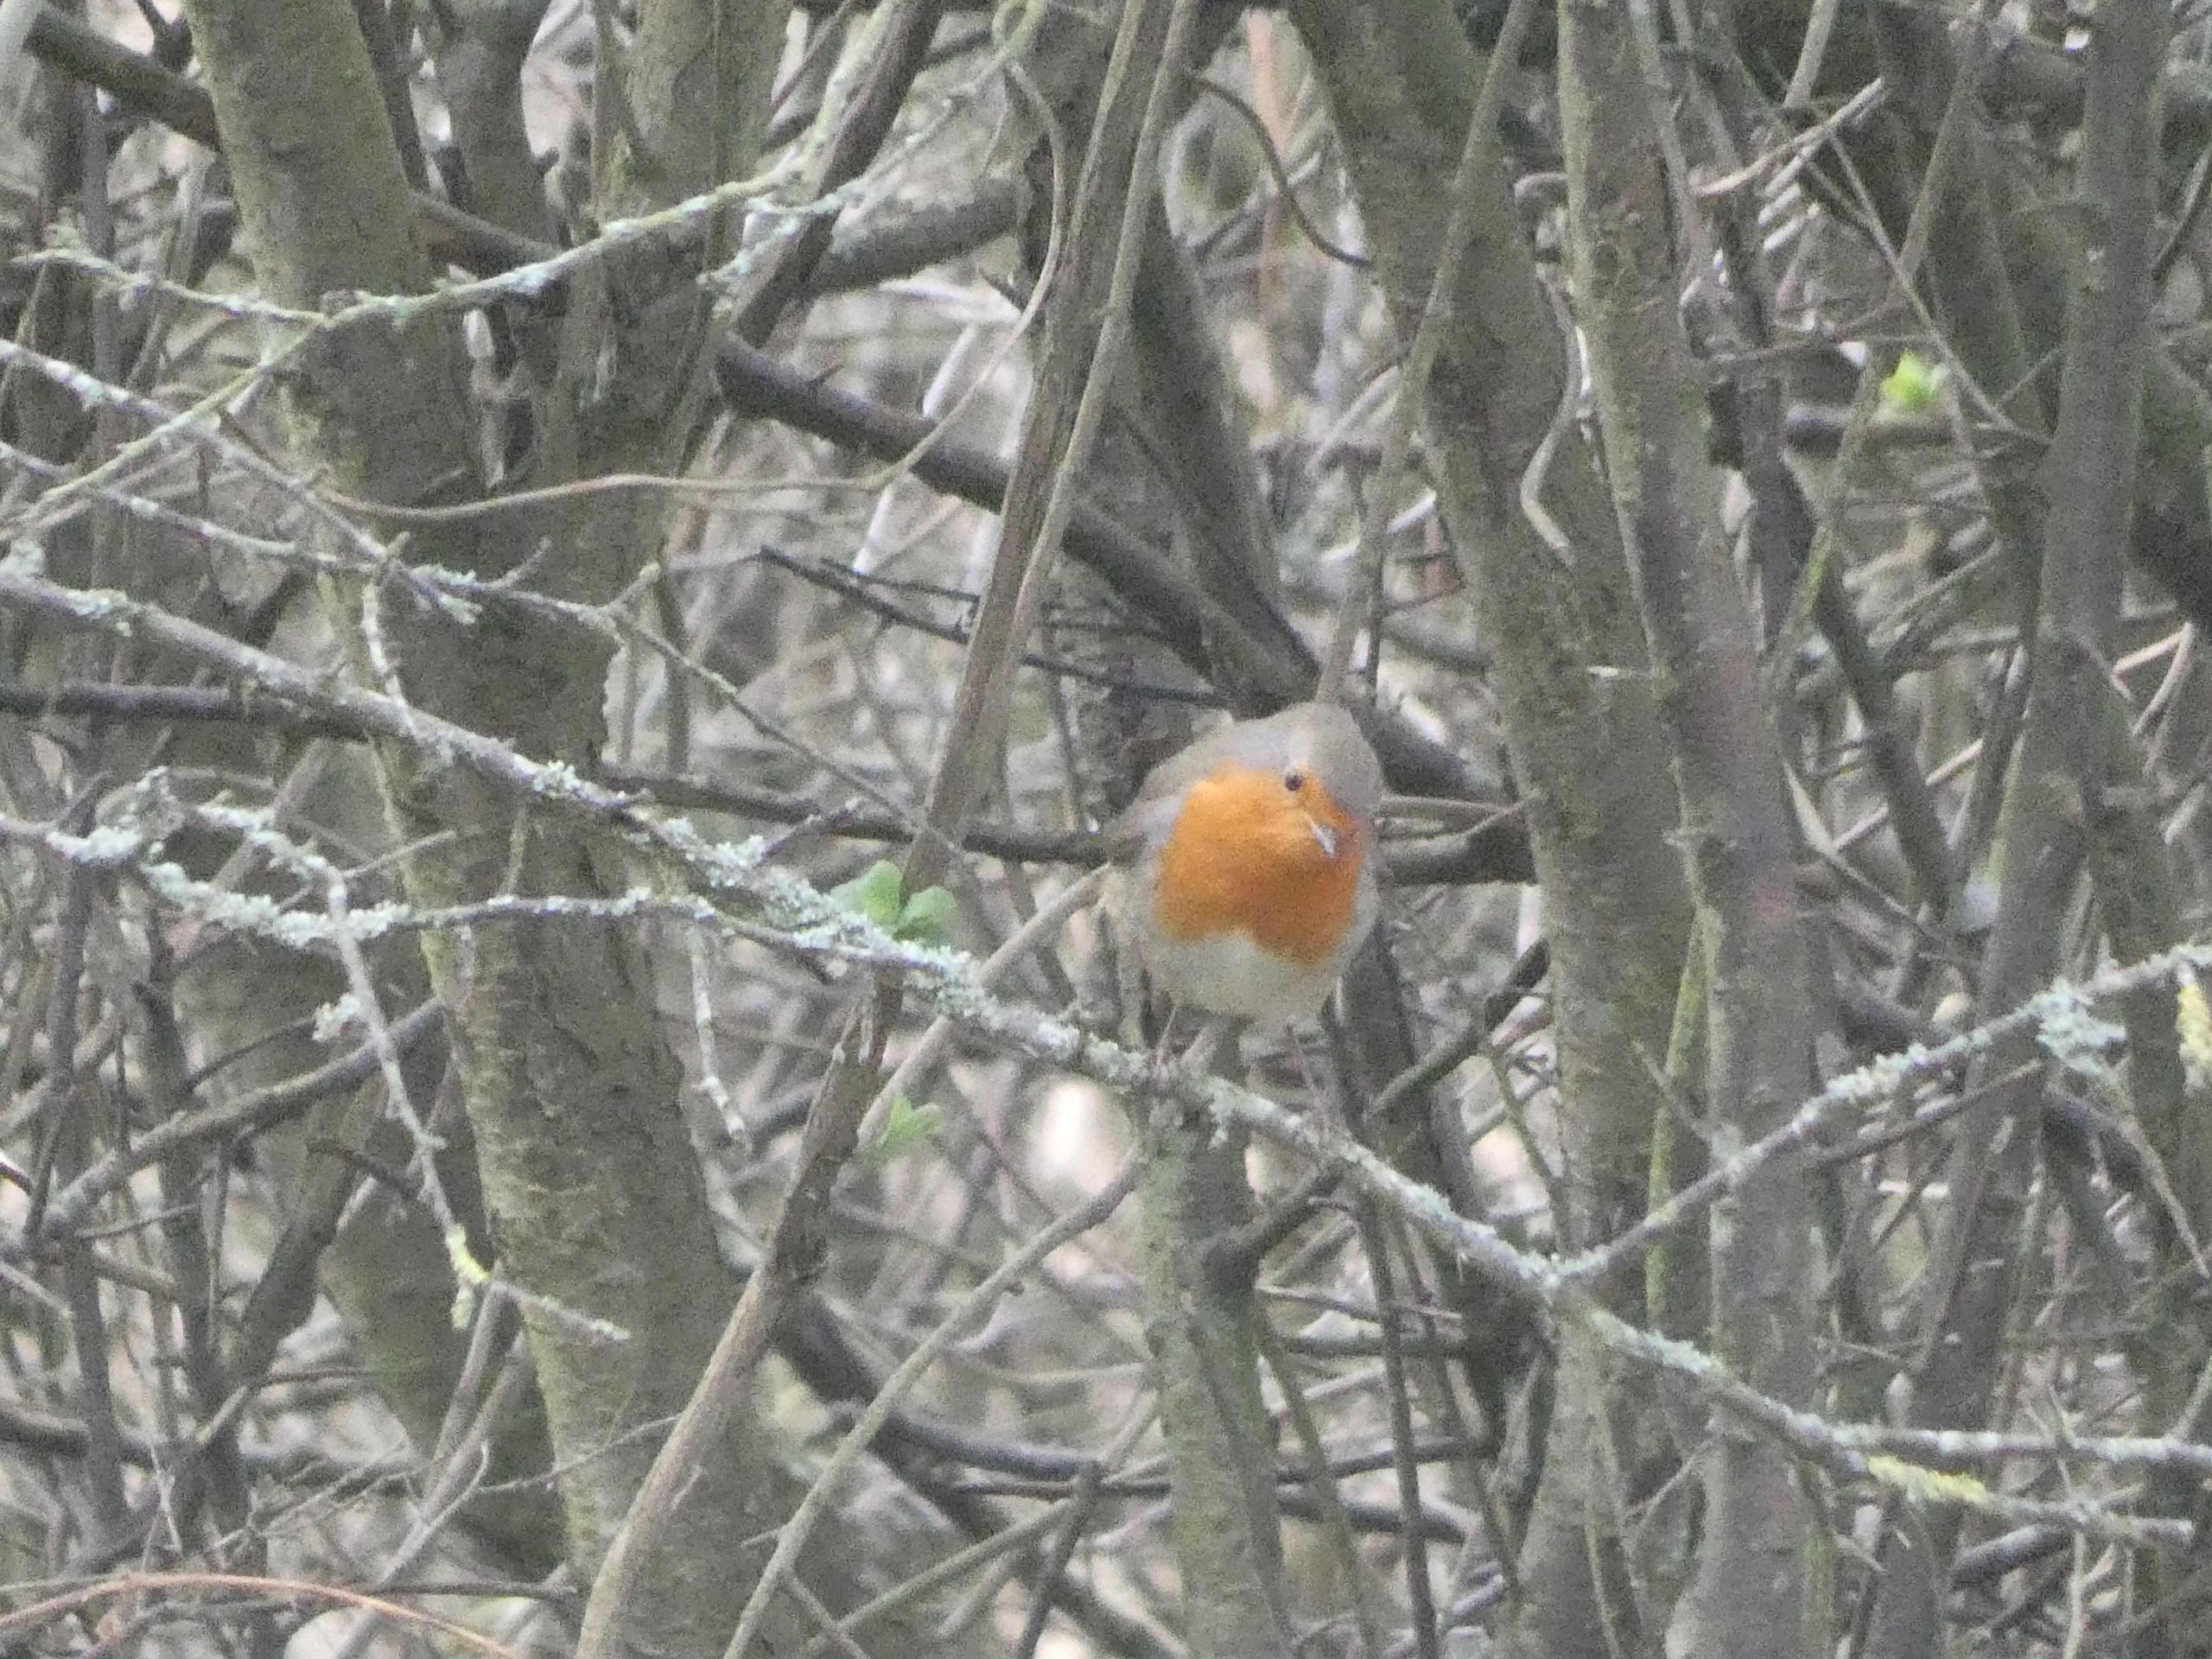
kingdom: Animalia
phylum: Chordata
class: Aves
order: Passeriformes
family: Muscicapidae
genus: Erithacus
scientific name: Erithacus rubecula
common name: Rødhals/rødkælk
